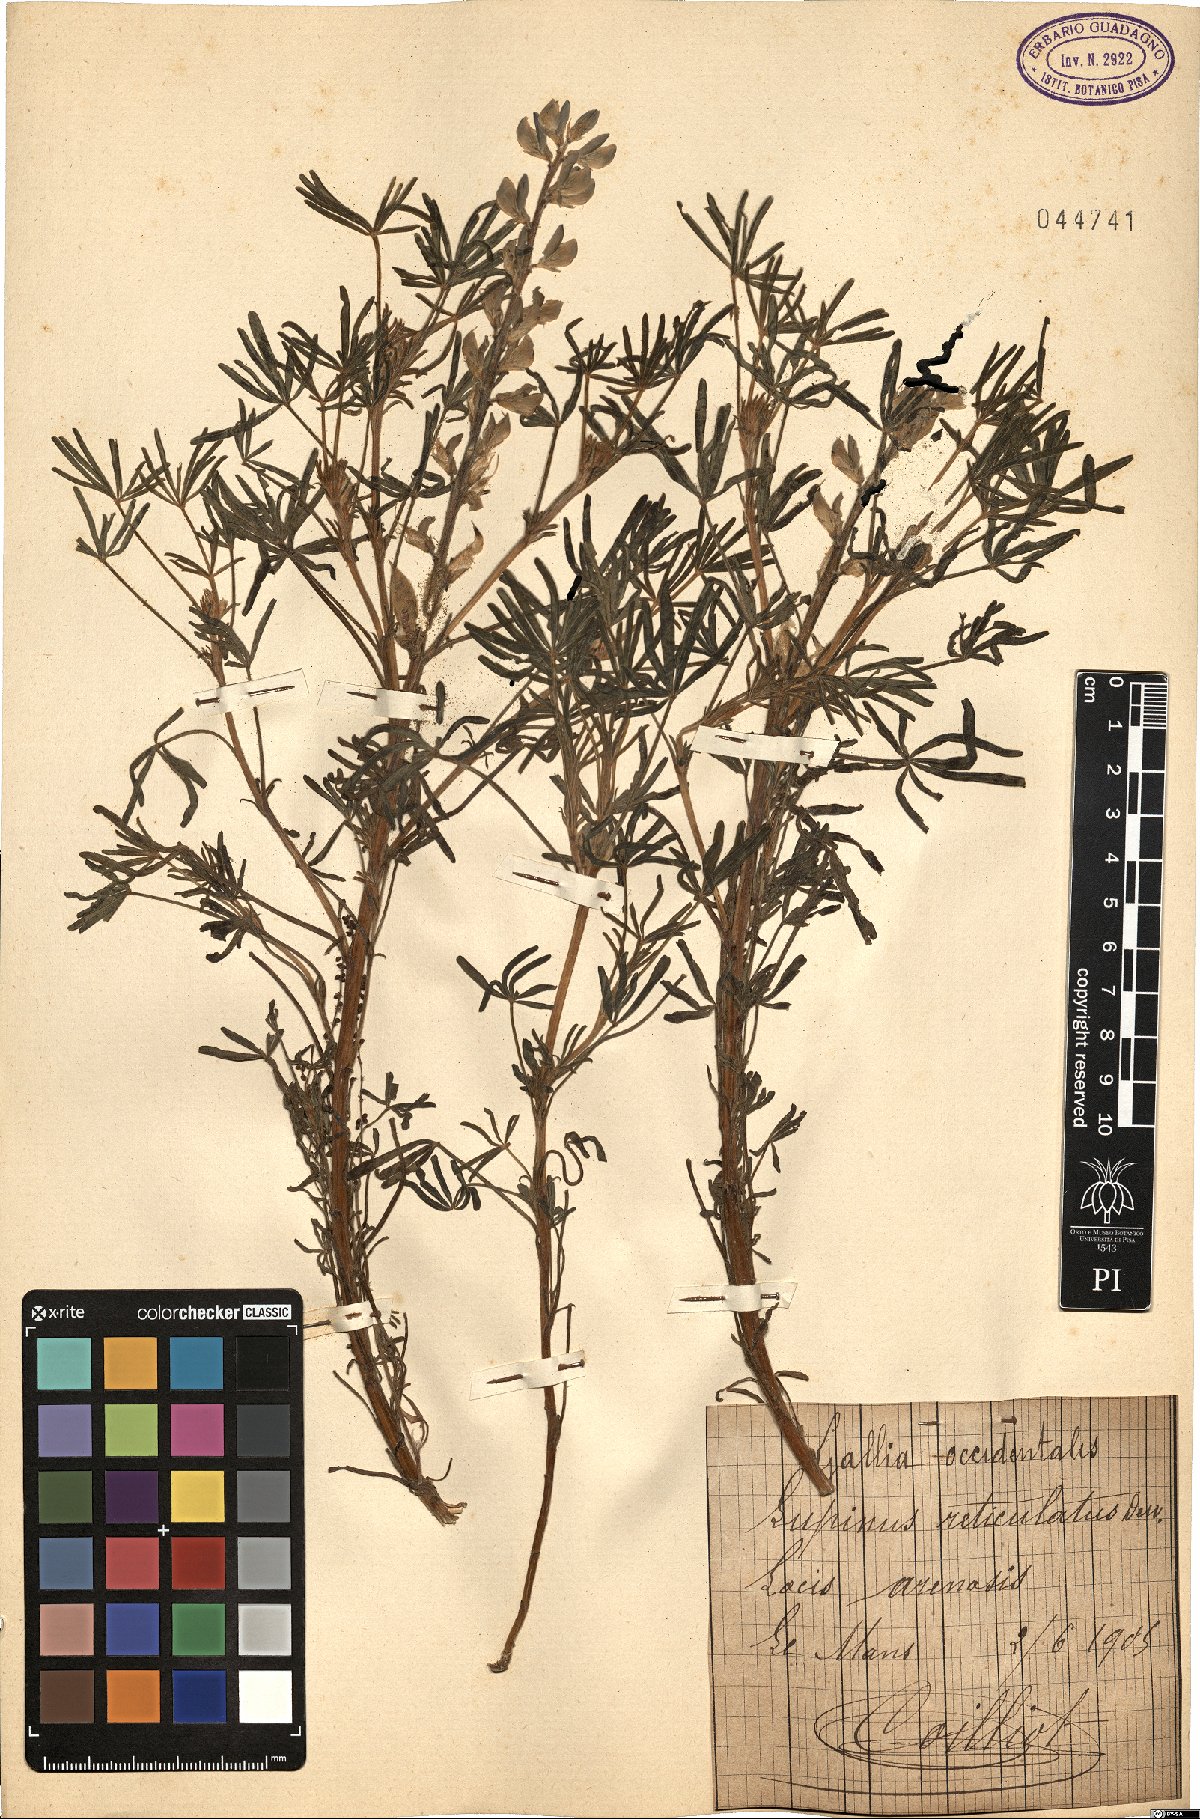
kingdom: Plantae
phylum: Tracheophyta
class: Magnoliopsida
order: Fabales
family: Fabaceae
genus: Lupinus
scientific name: Lupinus angustifolius
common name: Narrow-leaved lupin
